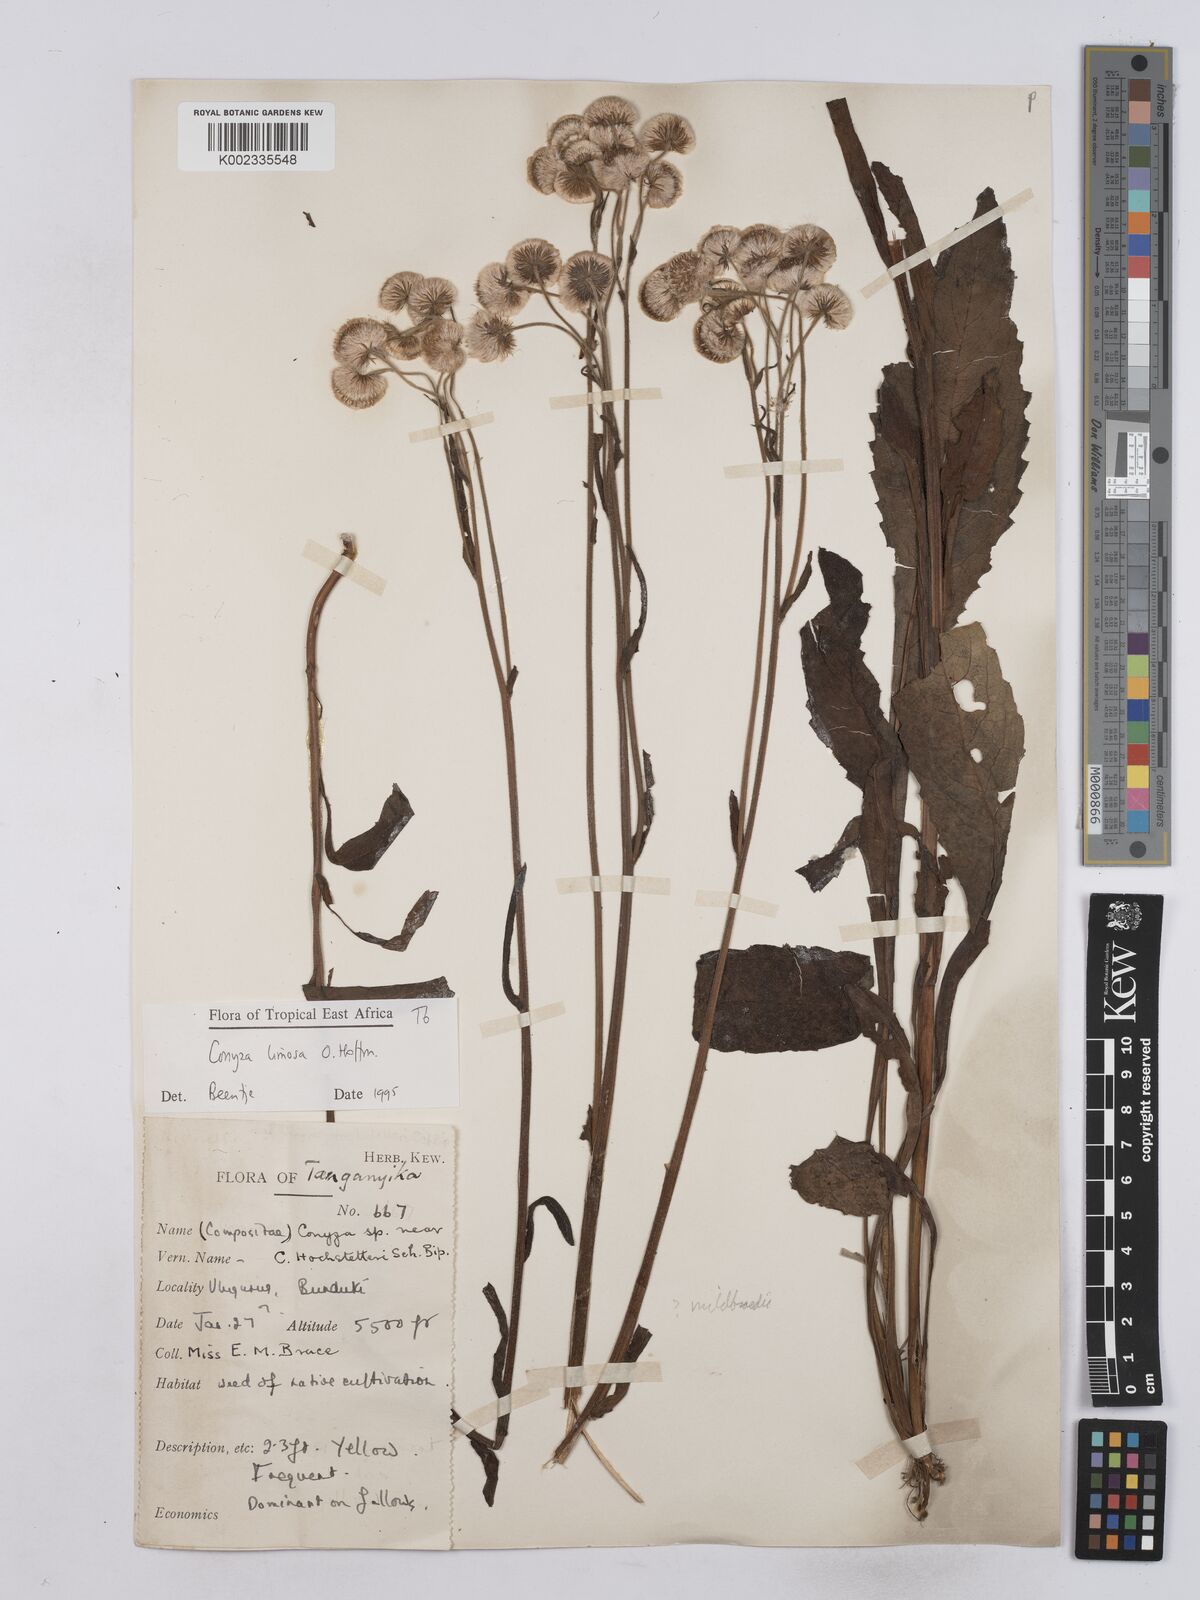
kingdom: Plantae
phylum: Tracheophyta
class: Magnoliopsida
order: Asterales
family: Asteraceae
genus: Conyza
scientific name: Conyza limosa
